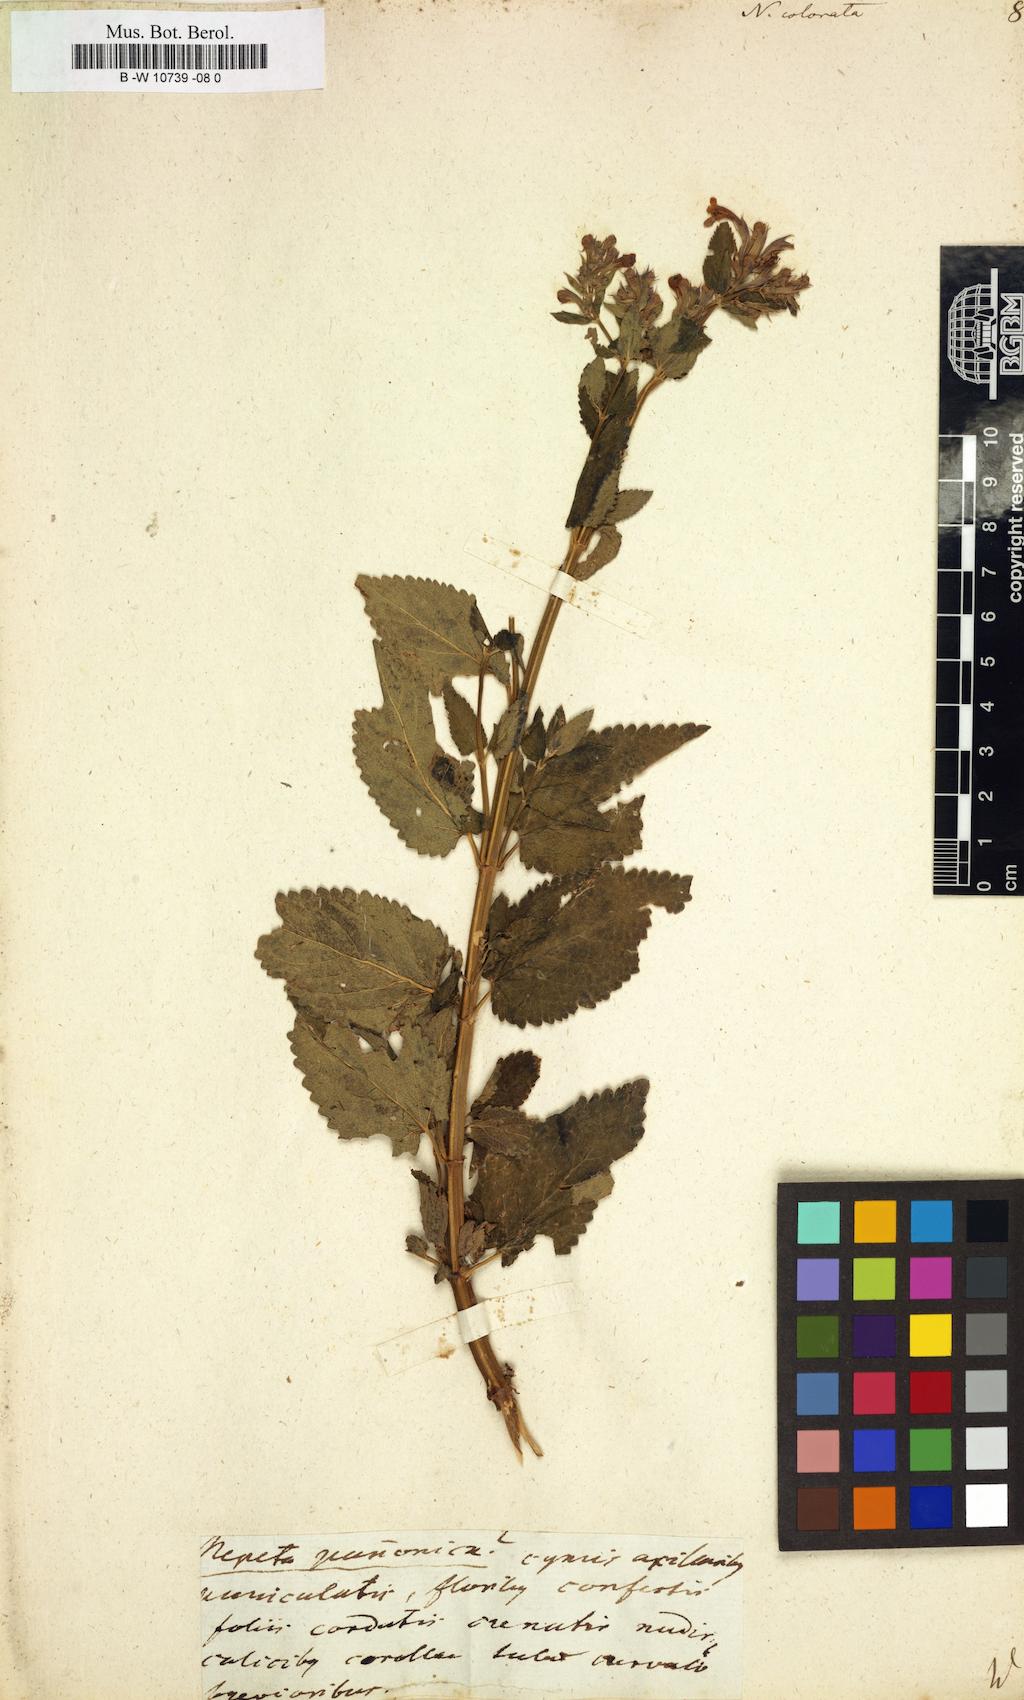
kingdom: Plantae
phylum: Tracheophyta
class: Magnoliopsida
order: Lamiales
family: Lamiaceae
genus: Nepeta
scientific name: Nepeta grandiflora
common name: Caucasus catmint
